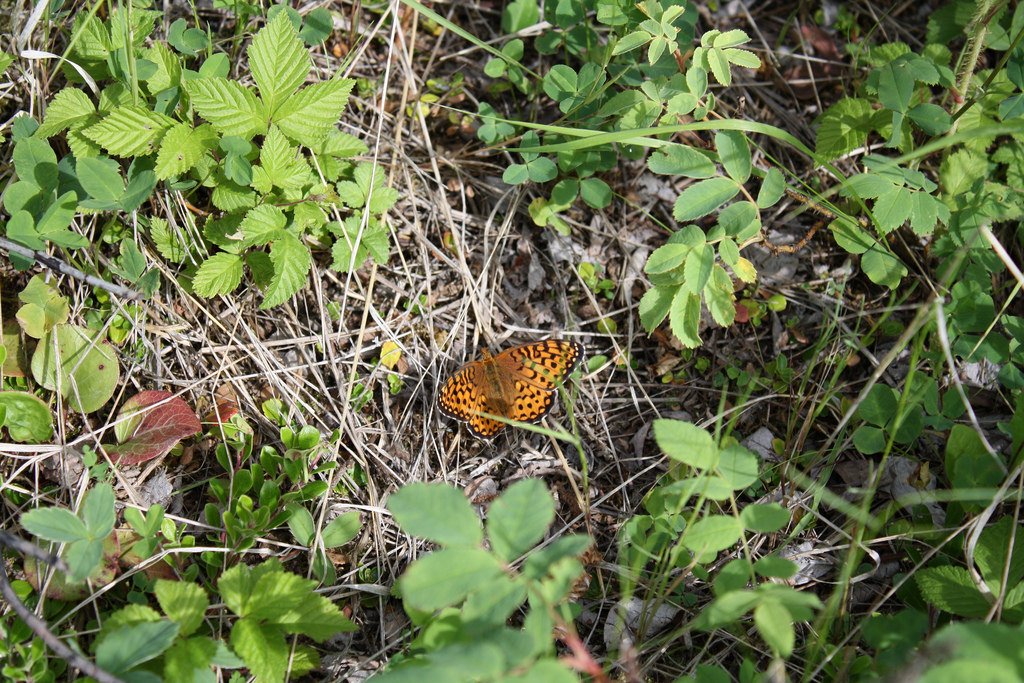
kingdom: Animalia
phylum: Arthropoda
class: Insecta
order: Lepidoptera
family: Nymphalidae
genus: Speyeria
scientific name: Speyeria atlantis
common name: Atlantis Fritillary
